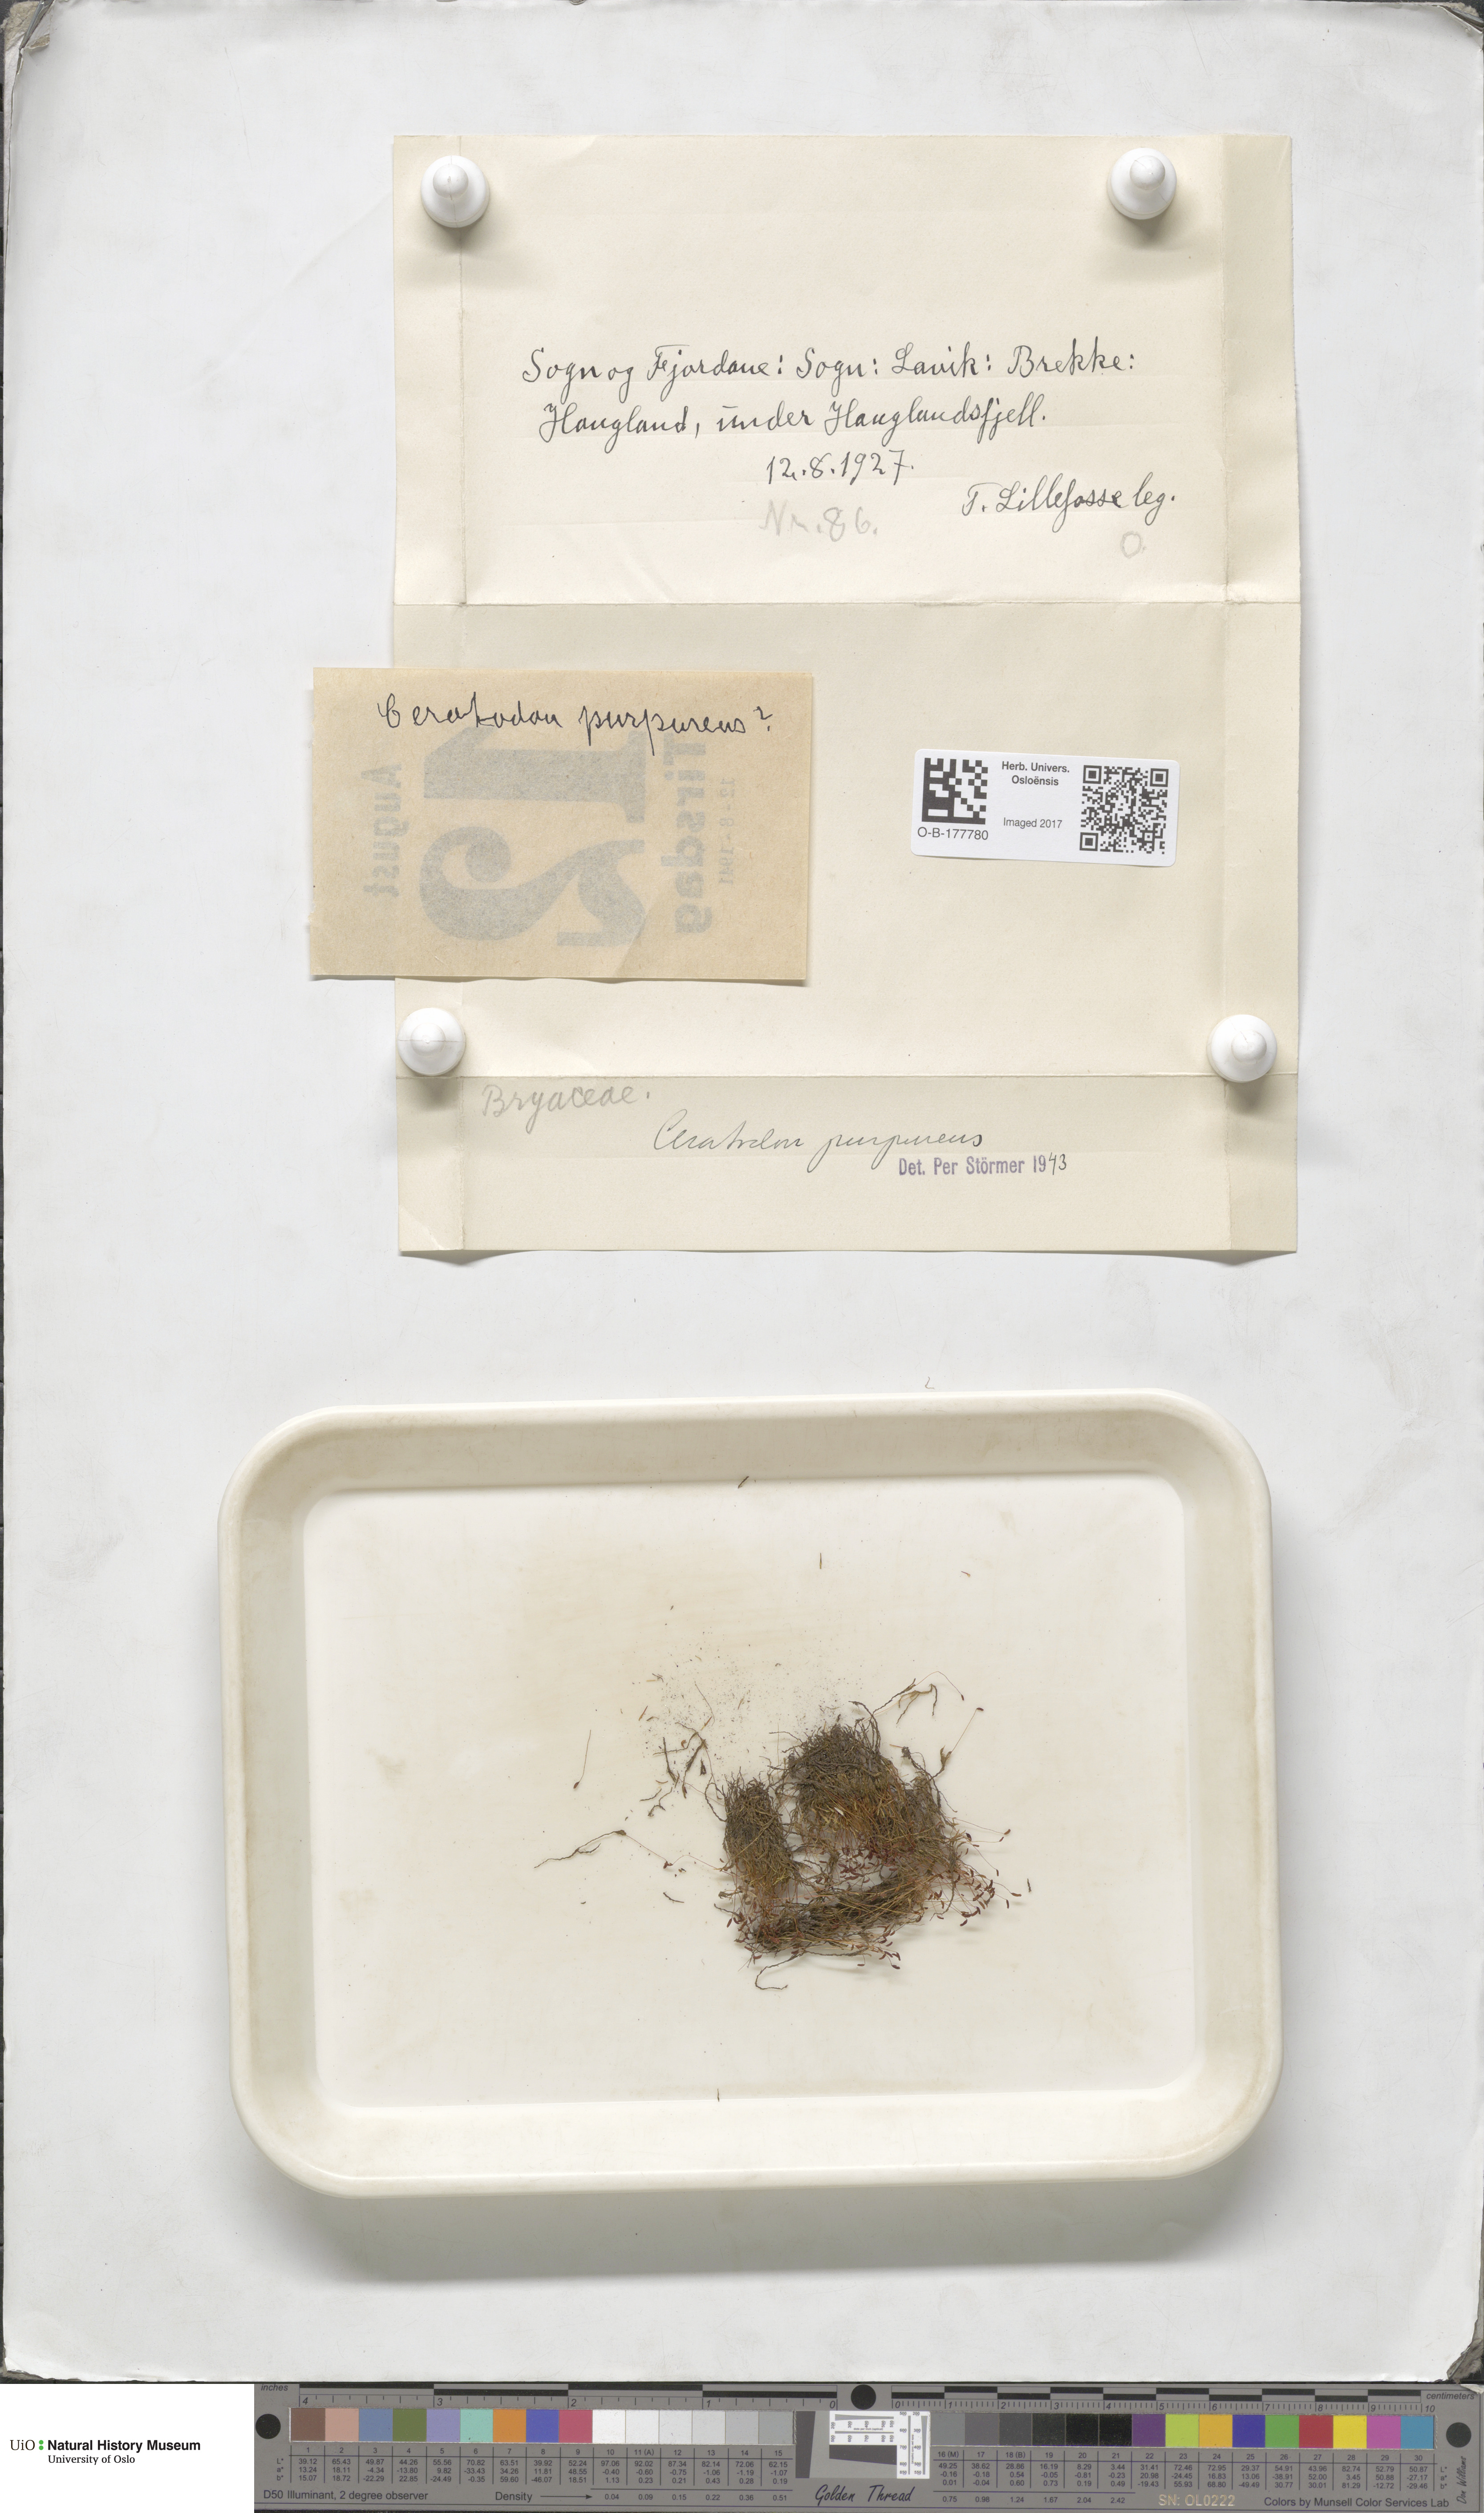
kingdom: Plantae
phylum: Bryophyta
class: Bryopsida
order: Dicranales
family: Ditrichaceae
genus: Ceratodon
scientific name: Ceratodon purpureus
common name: Redshank
